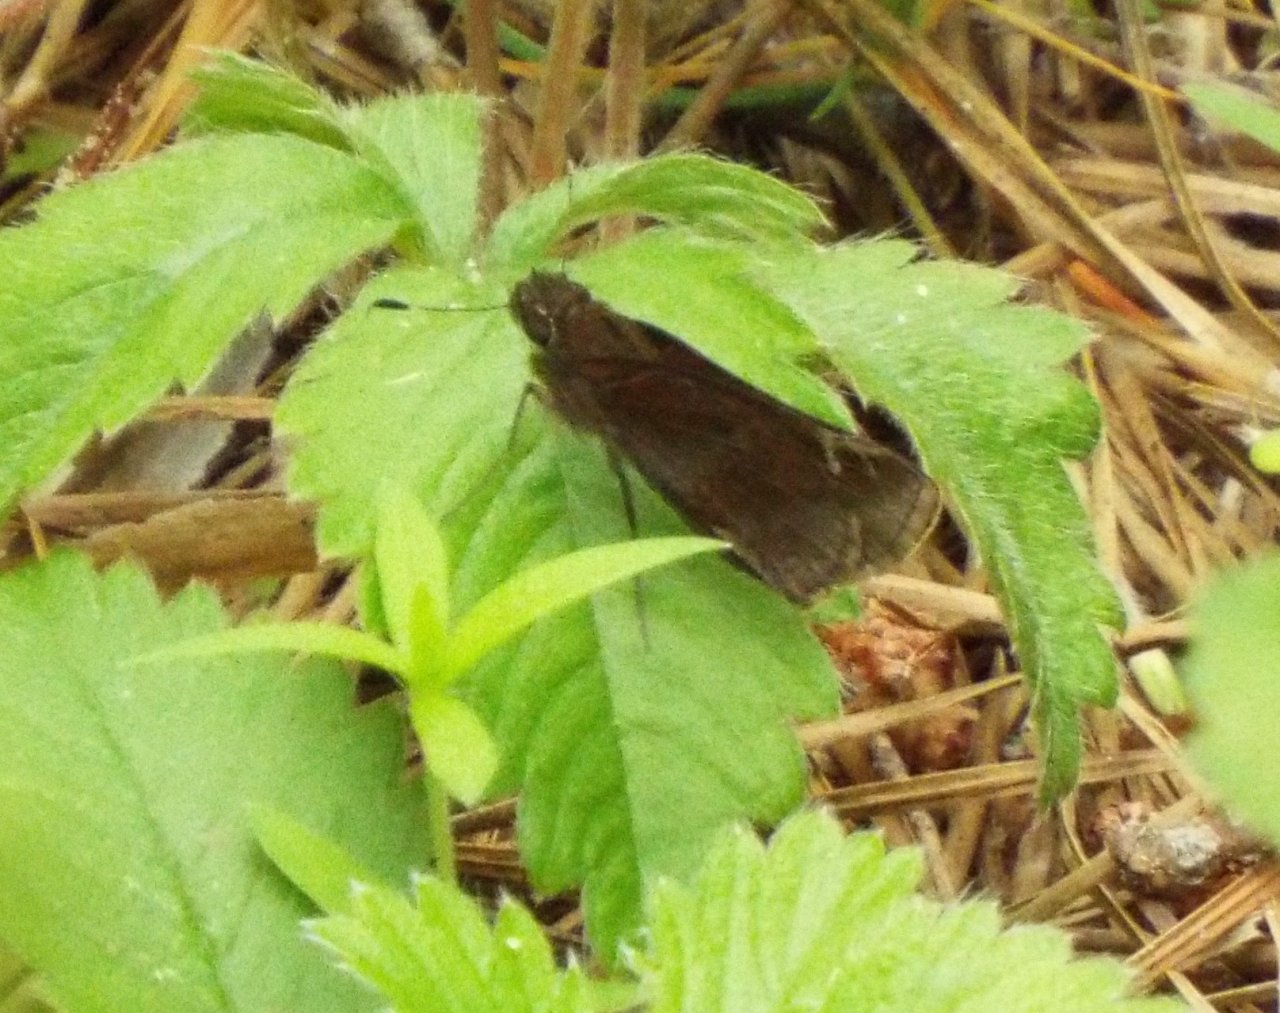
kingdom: Animalia
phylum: Arthropoda
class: Insecta
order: Lepidoptera
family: Hesperiidae
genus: Lerema
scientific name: Lerema accius
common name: Clouded Skipper
